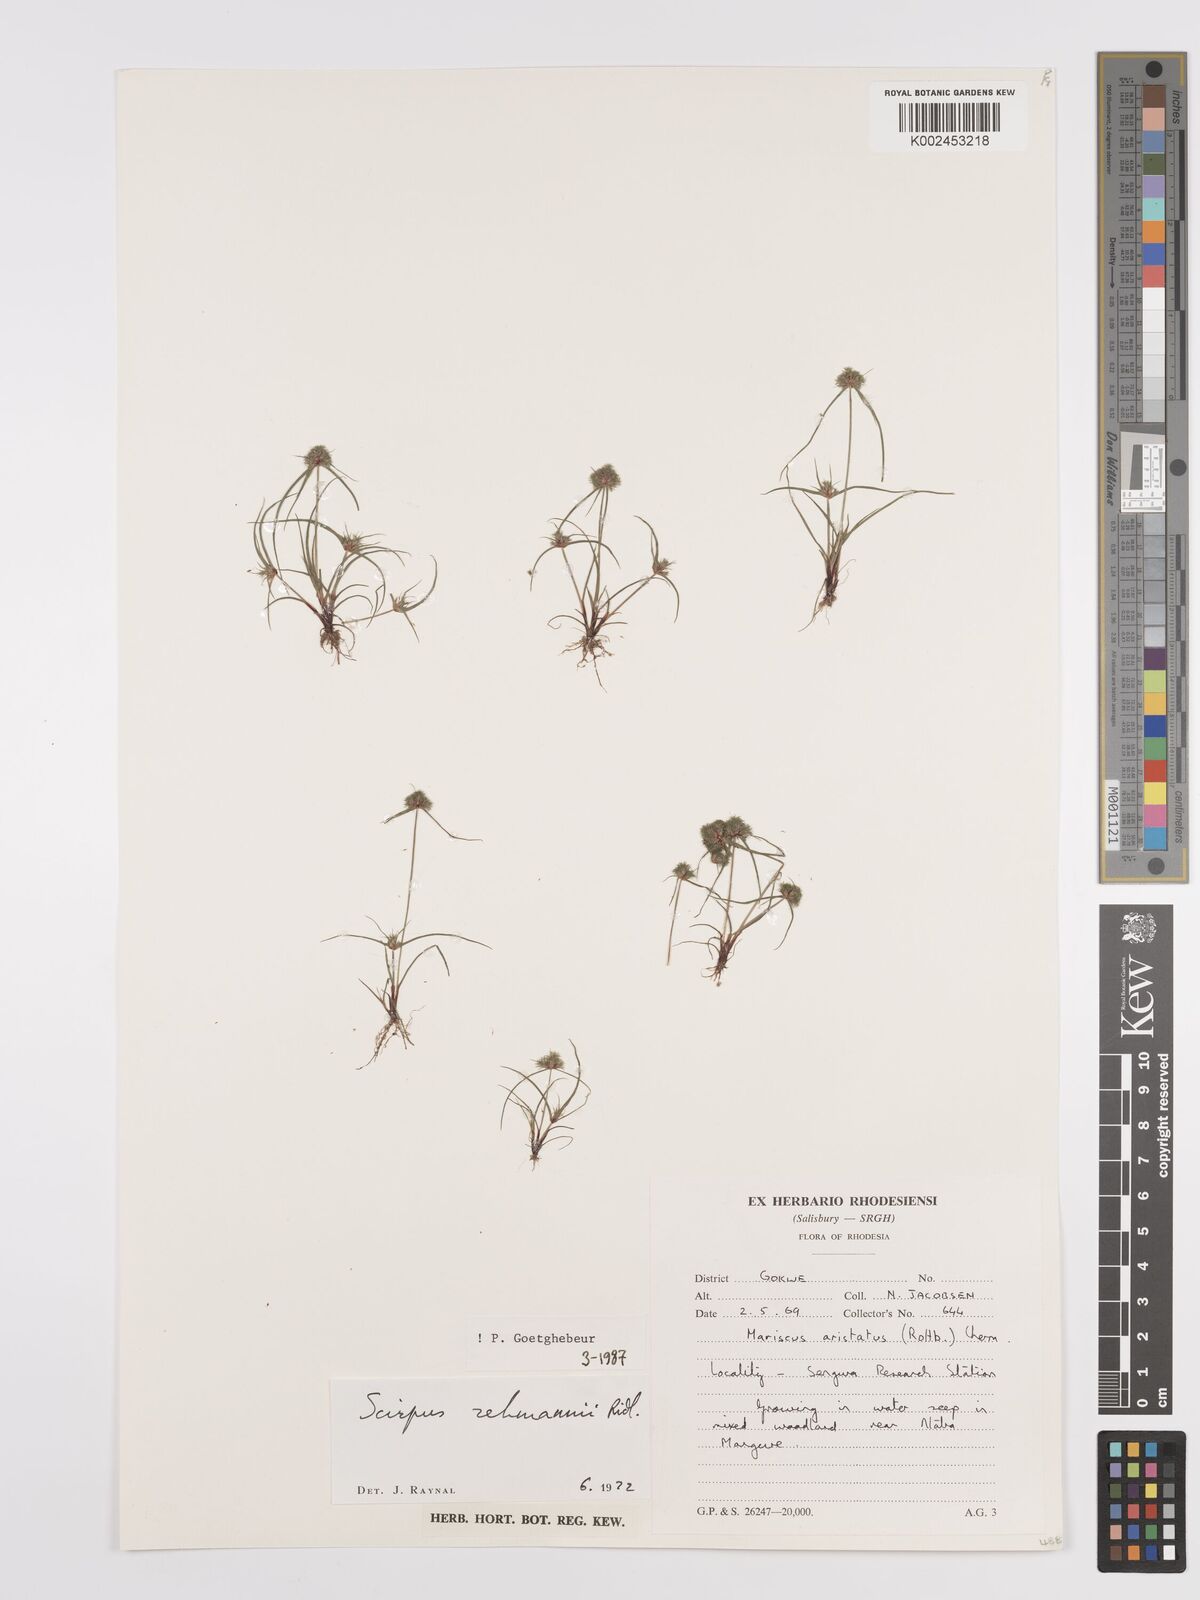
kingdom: Plantae
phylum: Tracheophyta
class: Liliopsida
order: Poales
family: Cyperaceae
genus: Cyperus
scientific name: Cyperus sanguinolentus
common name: Purpleglume flatsedge
